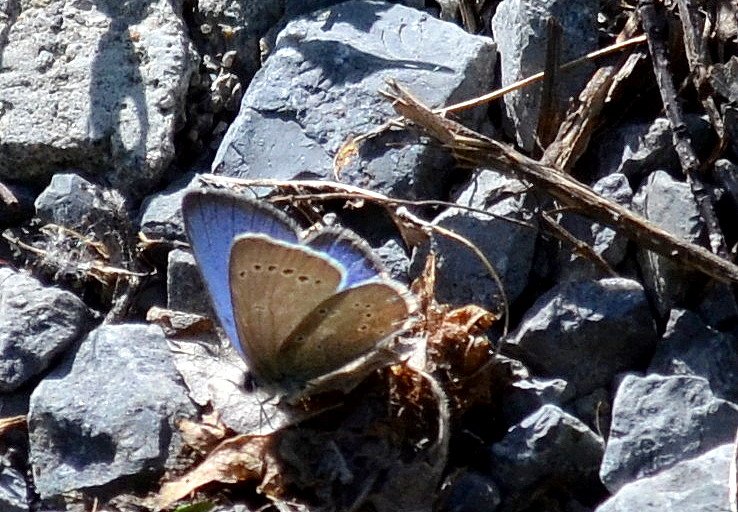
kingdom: Animalia
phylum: Arthropoda
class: Insecta
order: Lepidoptera
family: Lycaenidae
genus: Glaucopsyche
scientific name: Glaucopsyche lygdamus
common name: Silvery Blue
